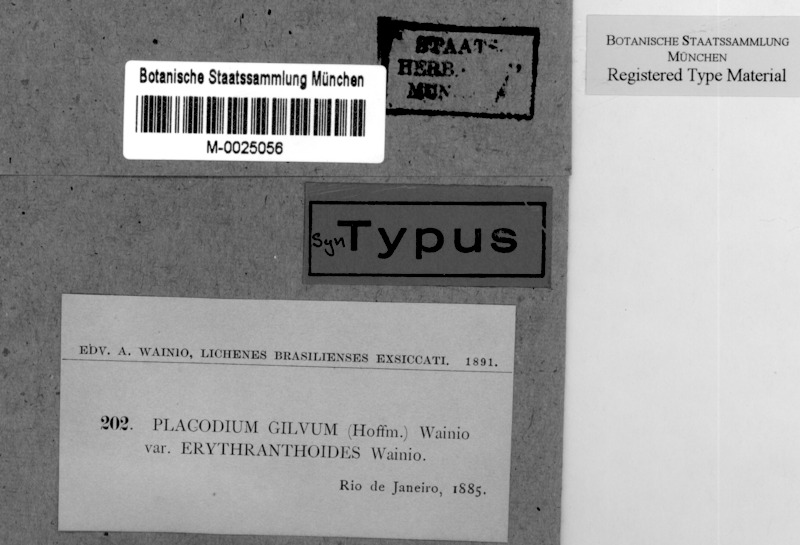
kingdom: Fungi
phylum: Ascomycota
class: Lecanoromycetes
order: Teloschistales
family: Teloschistaceae
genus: Caloplaca
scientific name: Caloplaca
